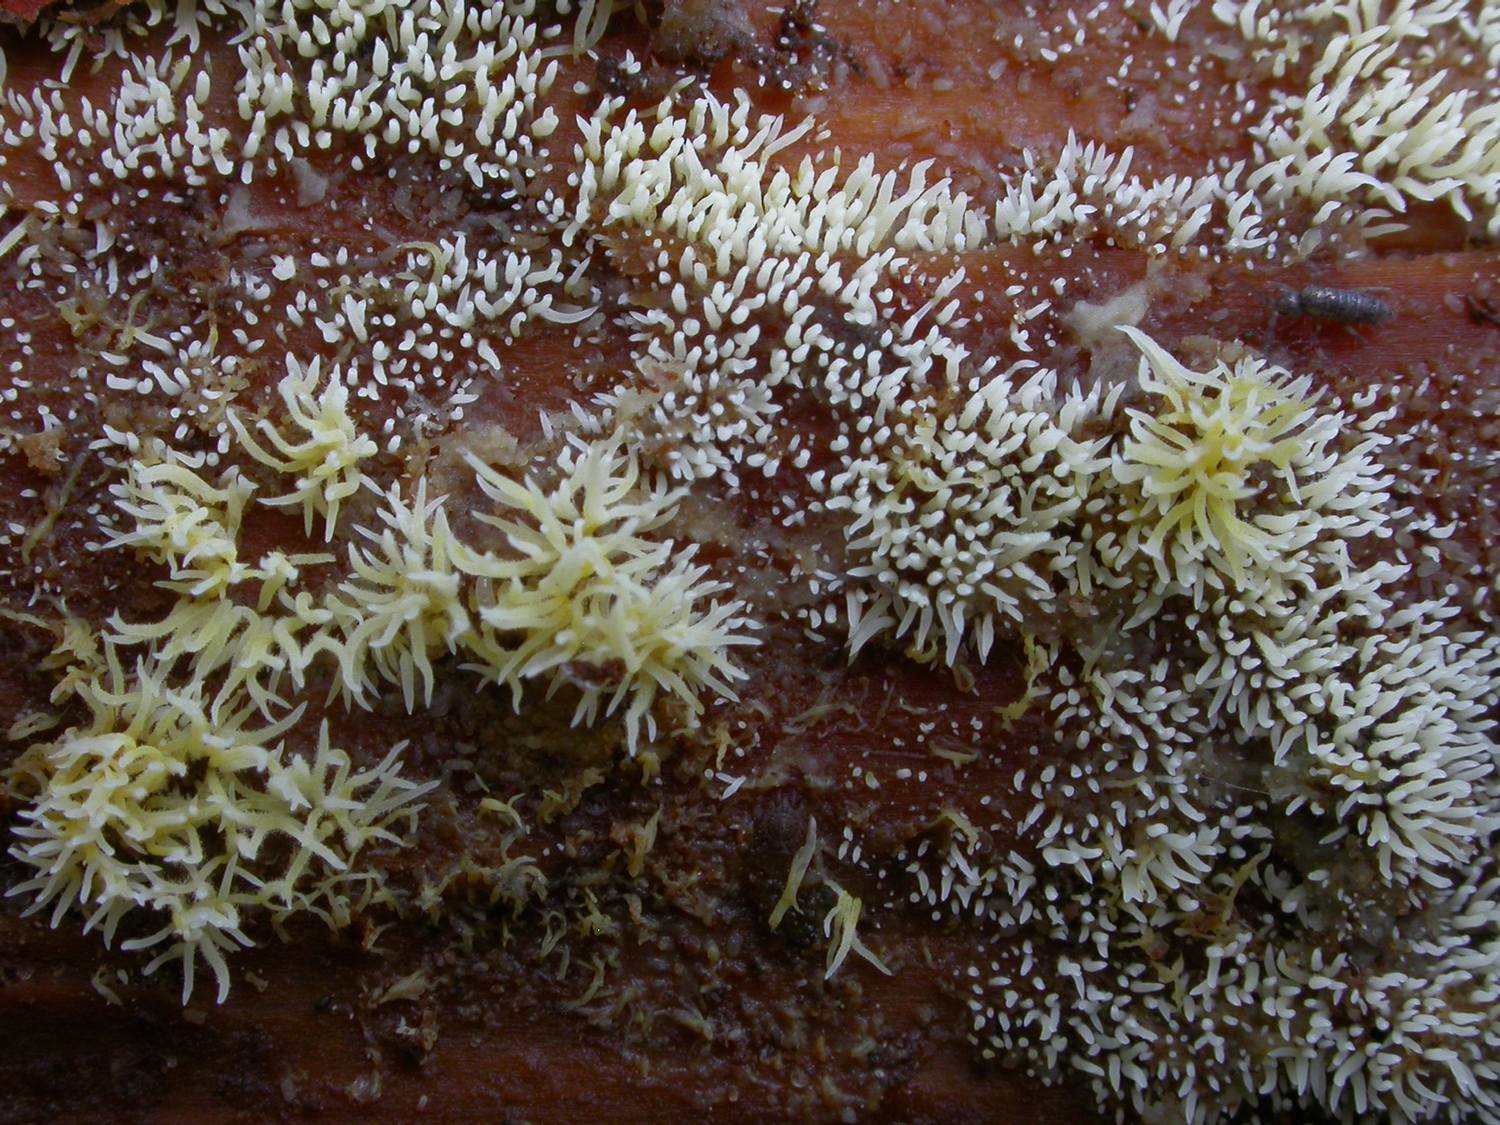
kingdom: Fungi
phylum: Basidiomycota
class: Agaricomycetes
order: Agaricales
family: Clavariaceae
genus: Mucronella
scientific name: Mucronella flava
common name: gul hængepig
